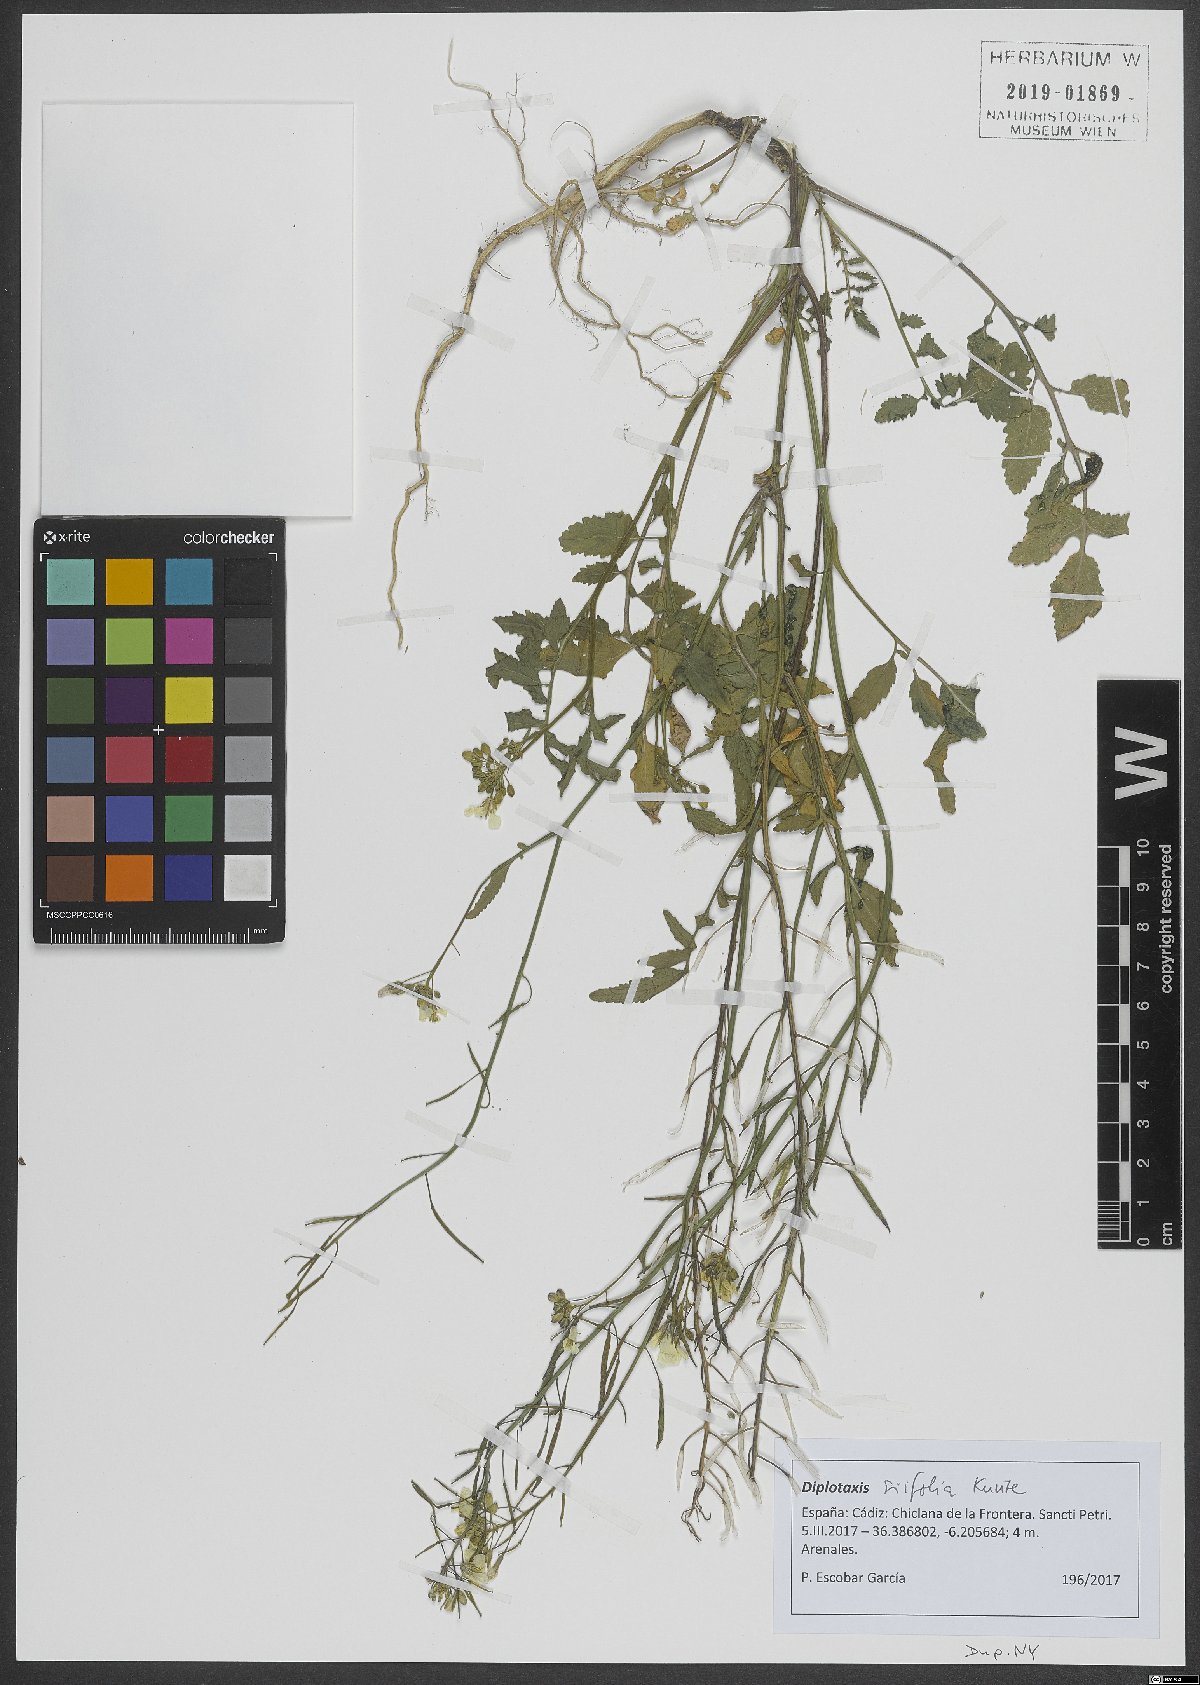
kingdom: Plantae
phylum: Tracheophyta
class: Magnoliopsida
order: Brassicales
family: Brassicaceae
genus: Diplotaxis
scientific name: Diplotaxis siifolia
